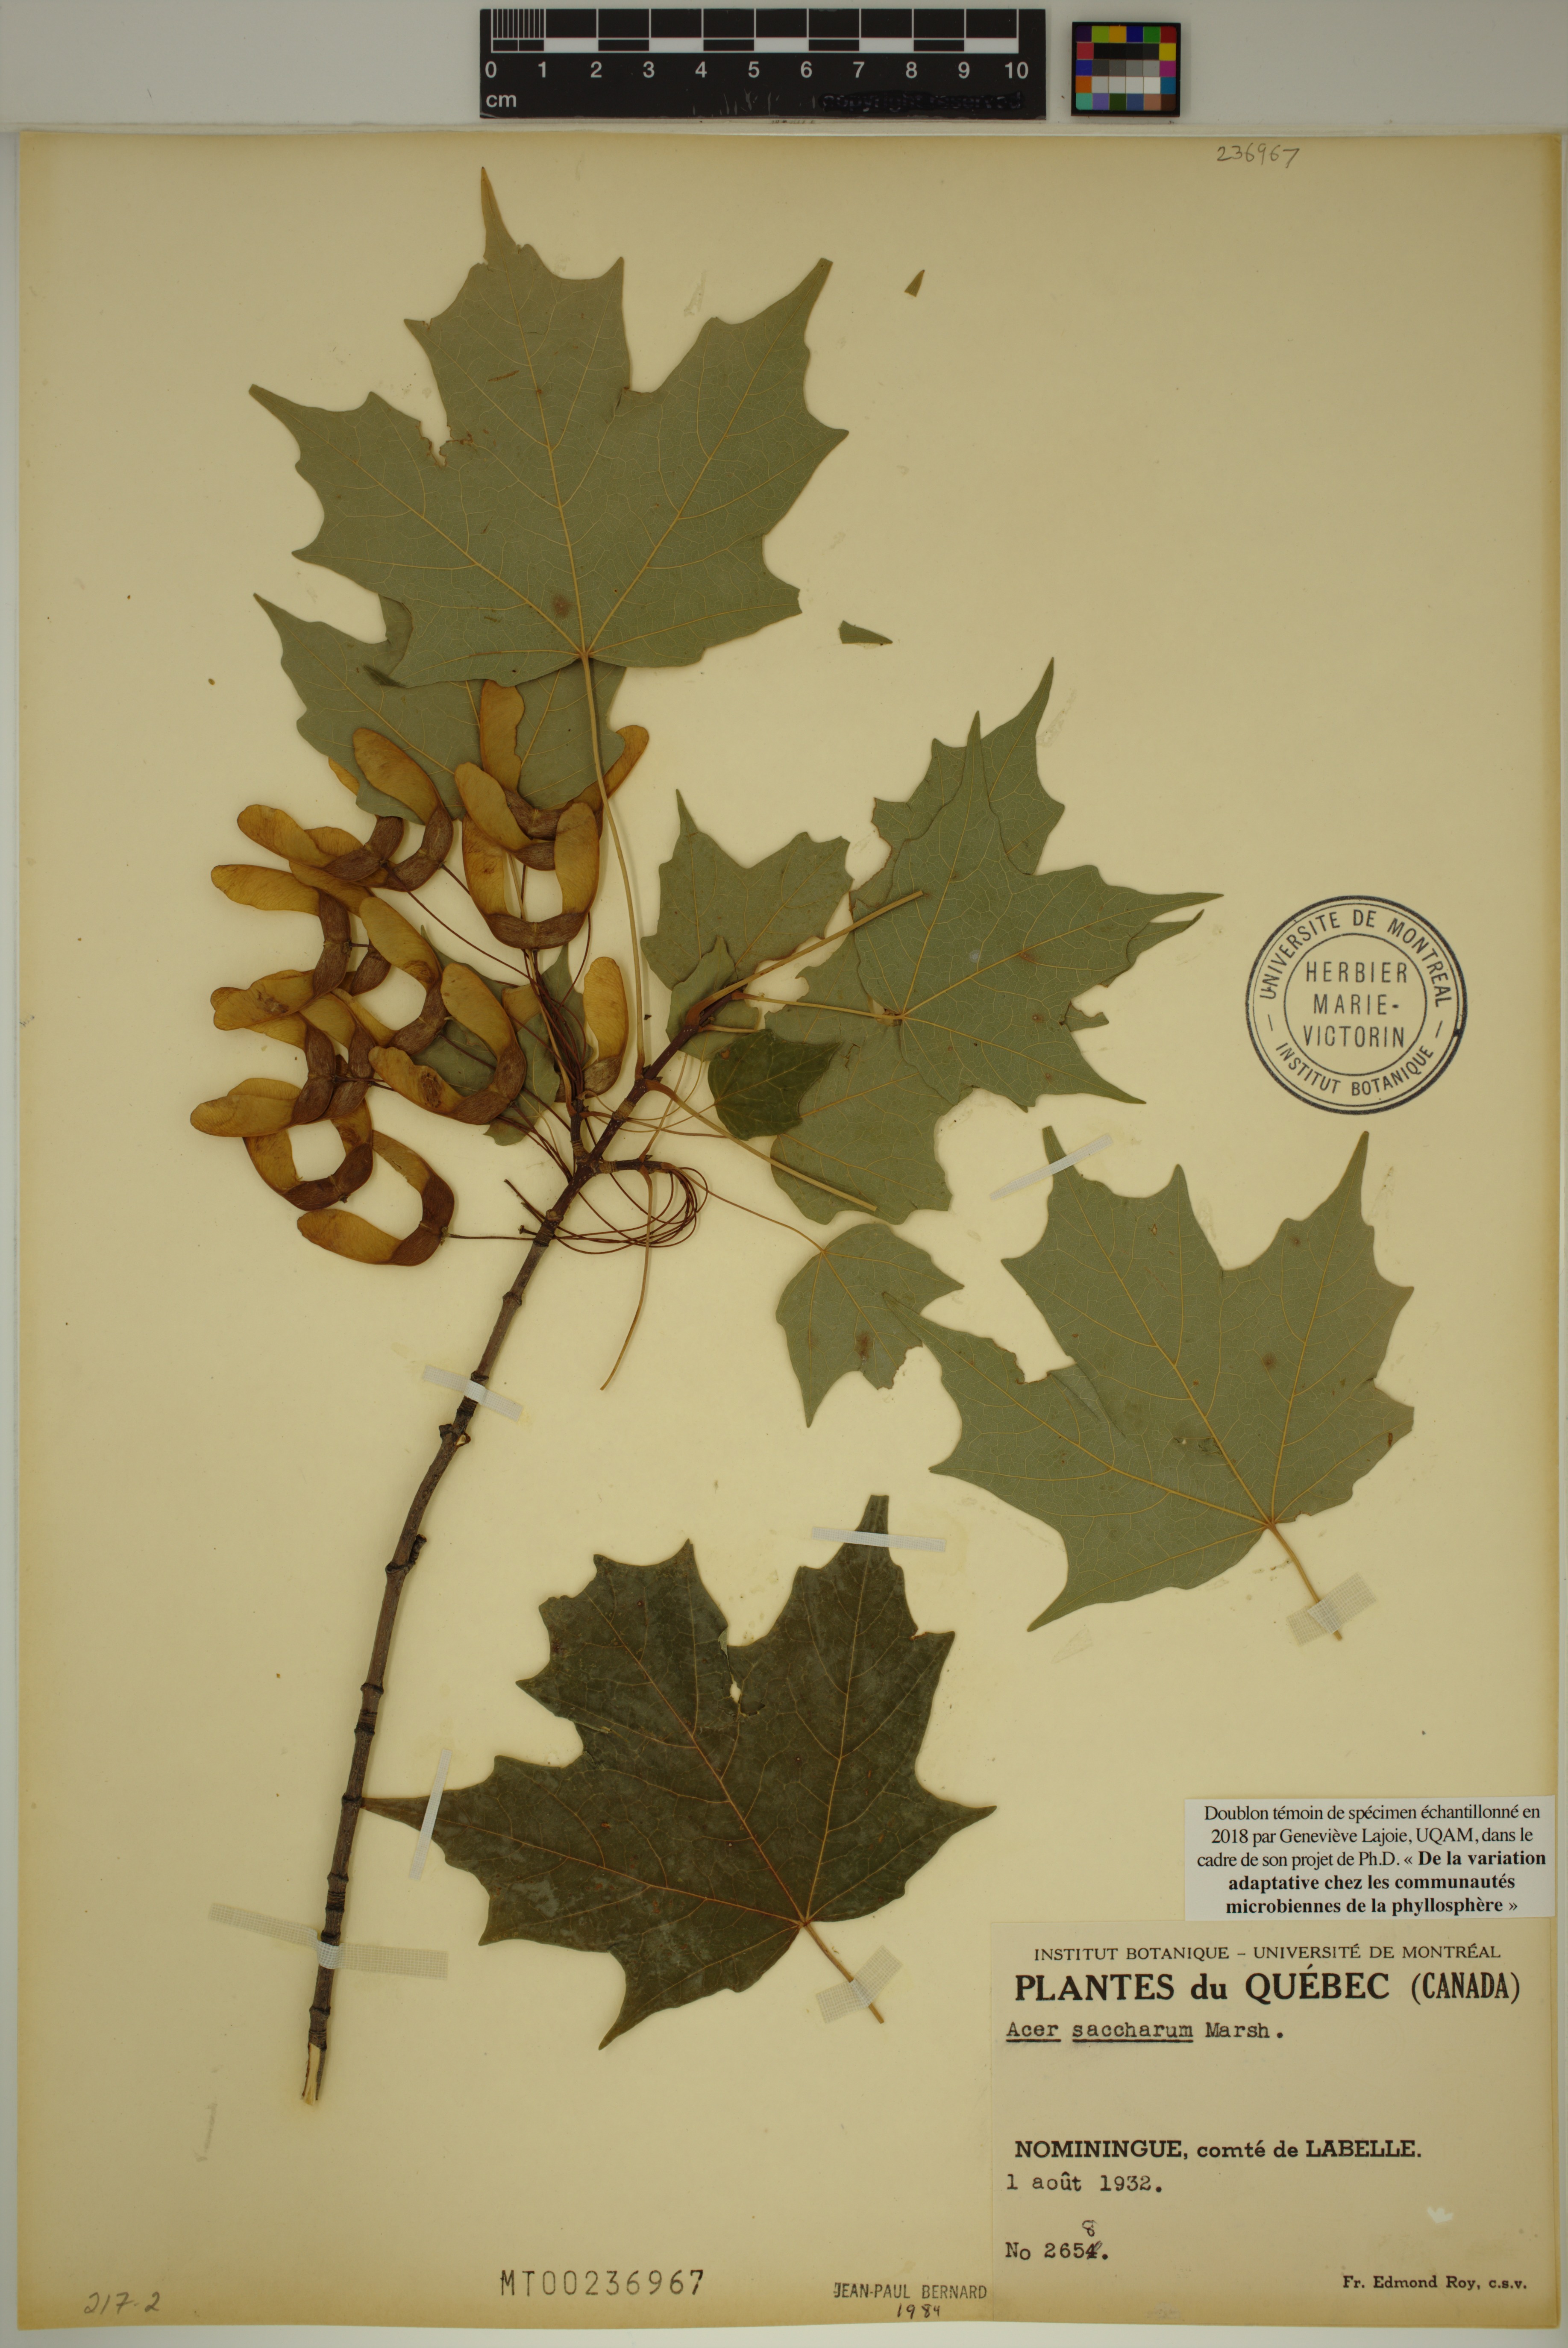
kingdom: Plantae
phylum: Tracheophyta
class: Magnoliopsida
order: Sapindales
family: Sapindaceae
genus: Acer
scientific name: Acer saccharum
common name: Sugar maple
